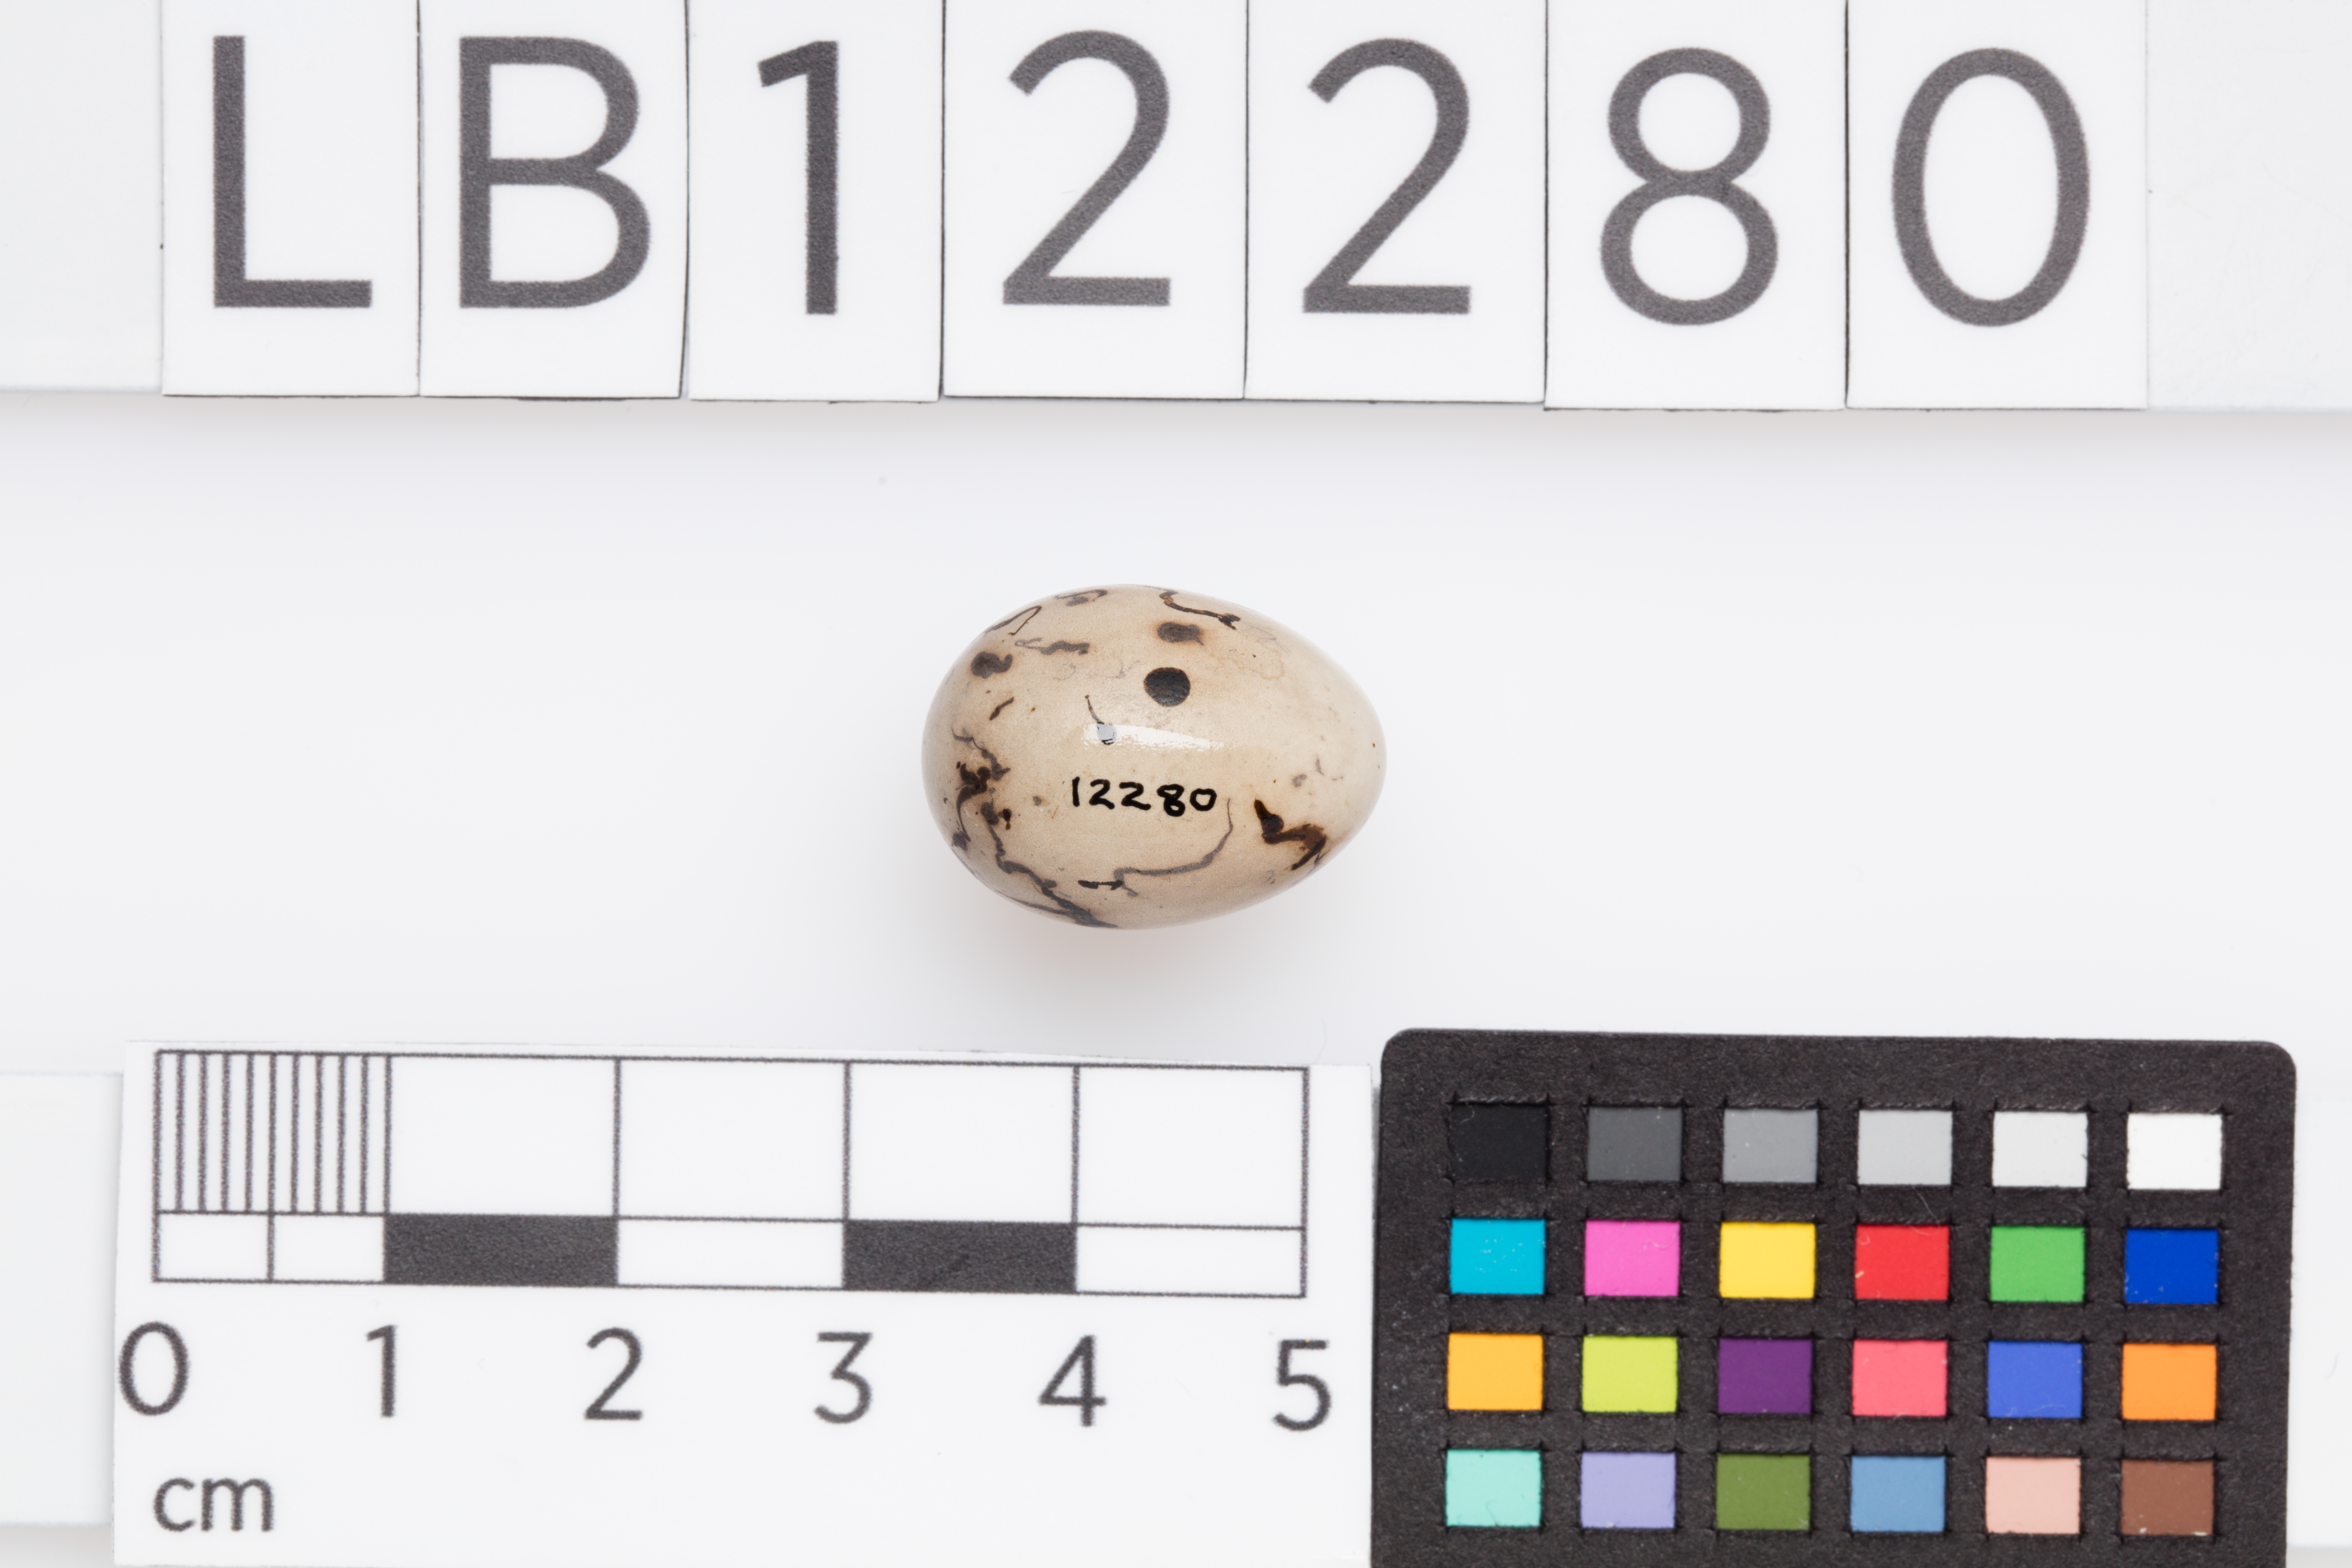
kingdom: Animalia
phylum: Chordata
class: Aves
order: Passeriformes
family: Emberizidae
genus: Emberiza
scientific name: Emberiza schoeniclus
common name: Reed bunting
